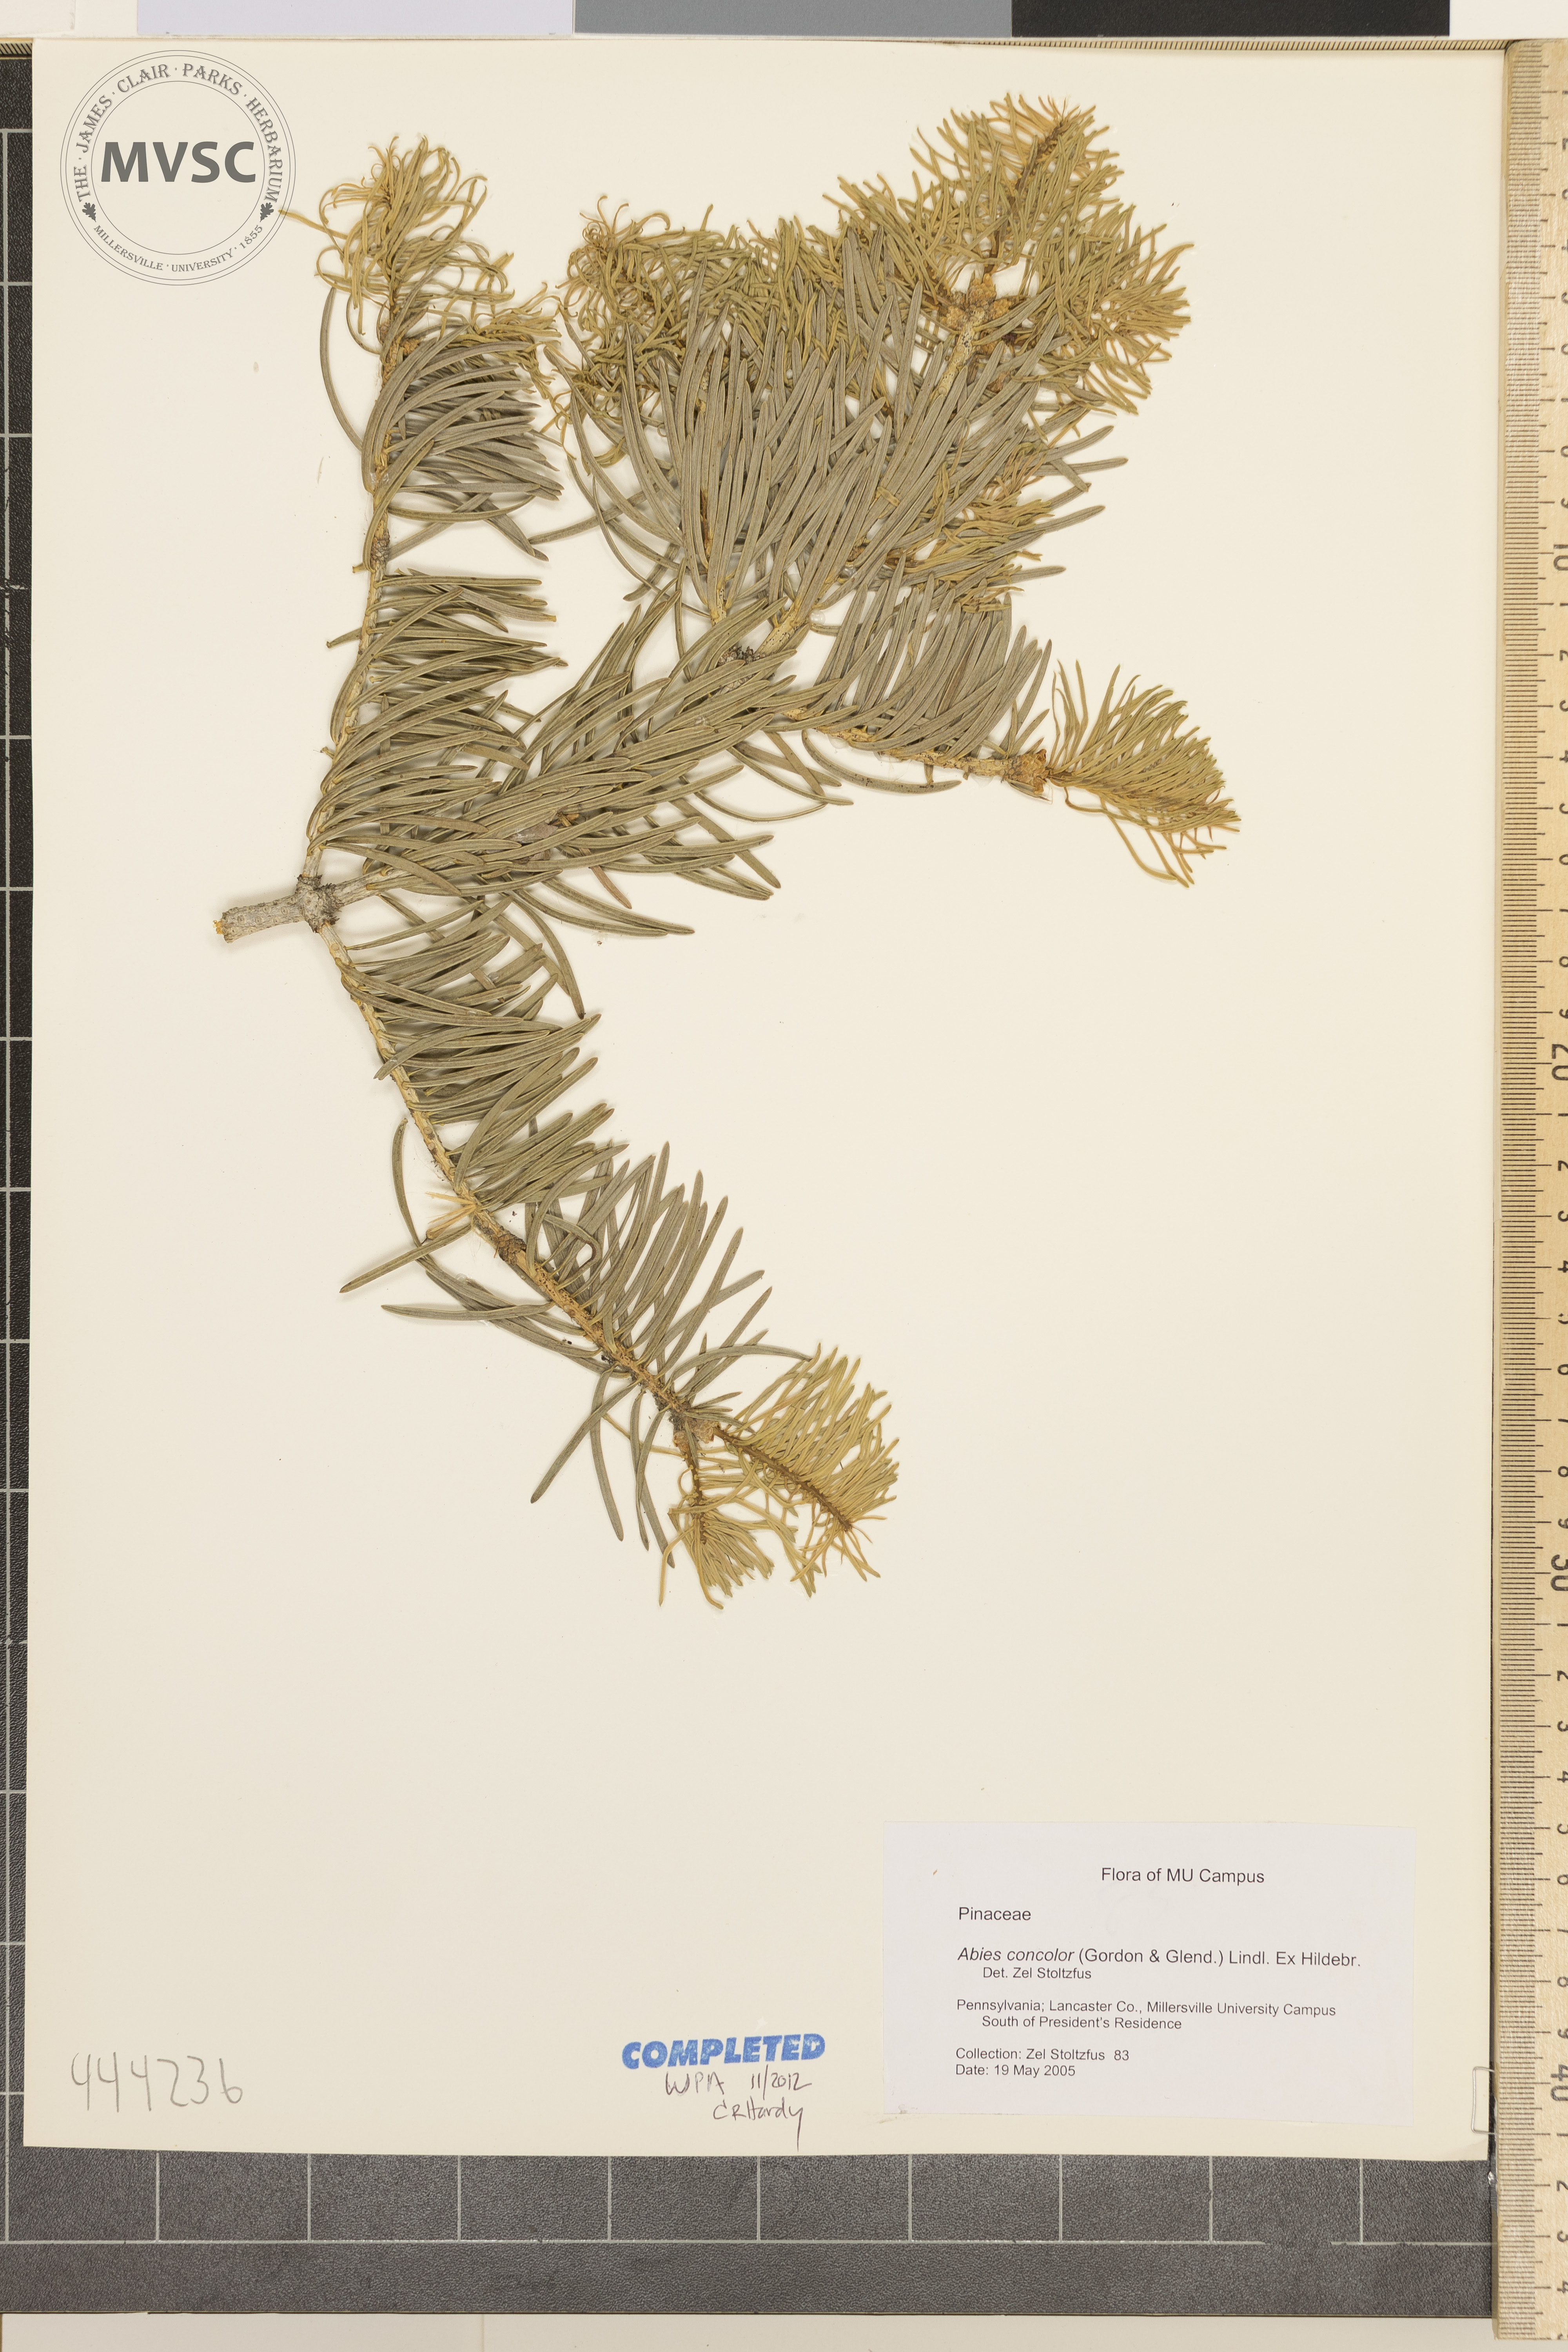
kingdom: Plantae
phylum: Tracheophyta
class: Pinopsida
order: Pinales
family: Pinaceae
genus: Abies
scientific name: Abies concolor
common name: Colorado fir
